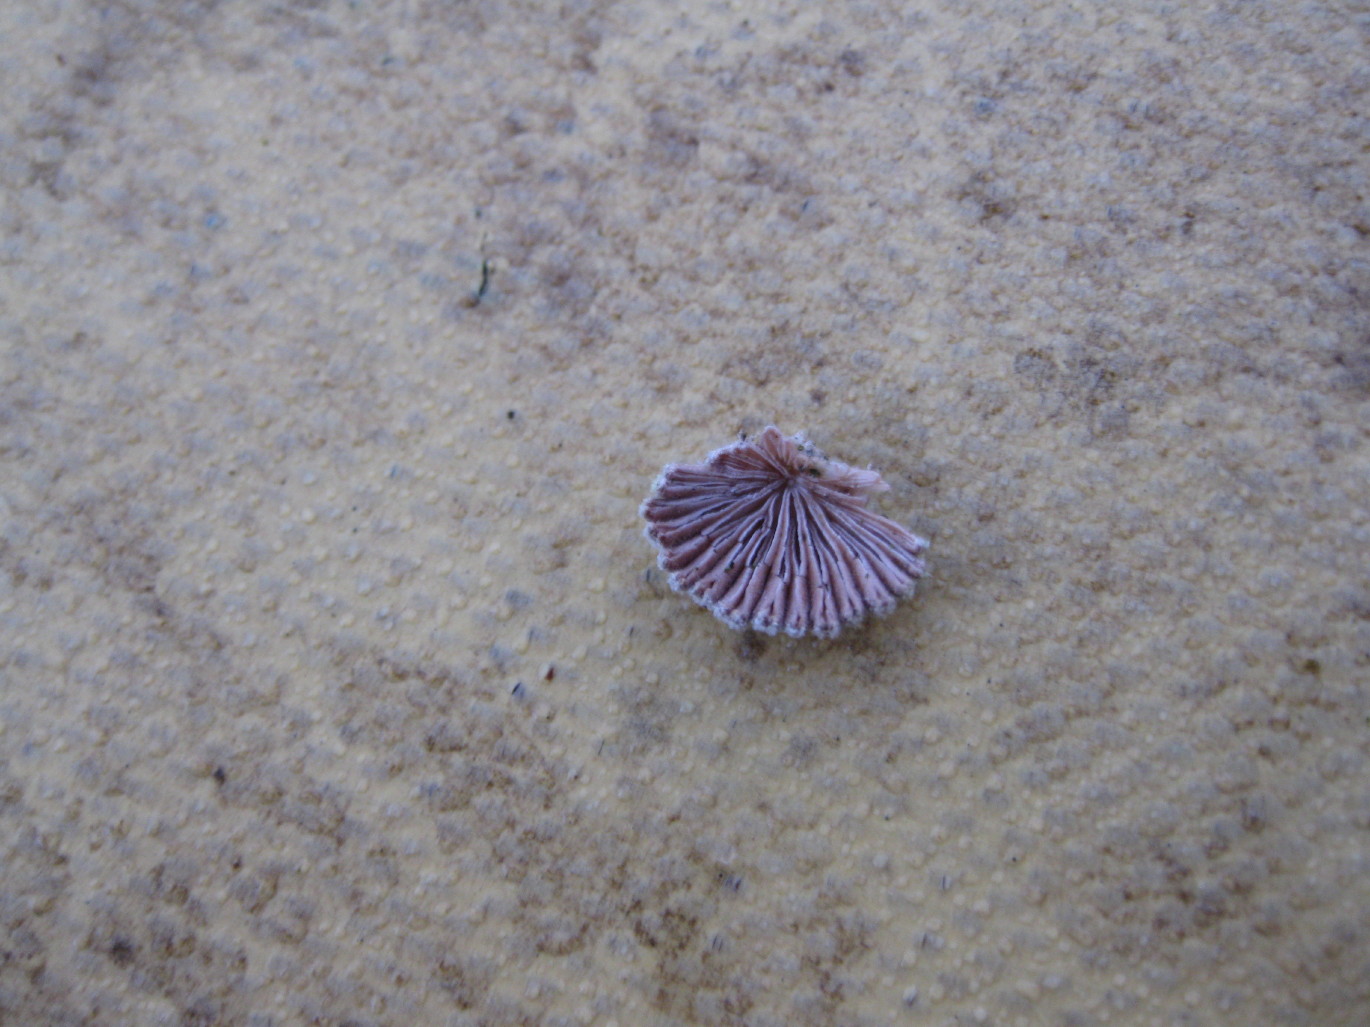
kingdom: Fungi
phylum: Basidiomycota
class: Agaricomycetes
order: Agaricales
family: Schizophyllaceae
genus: Schizophyllum
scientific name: Schizophyllum commune
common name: kløvblad
